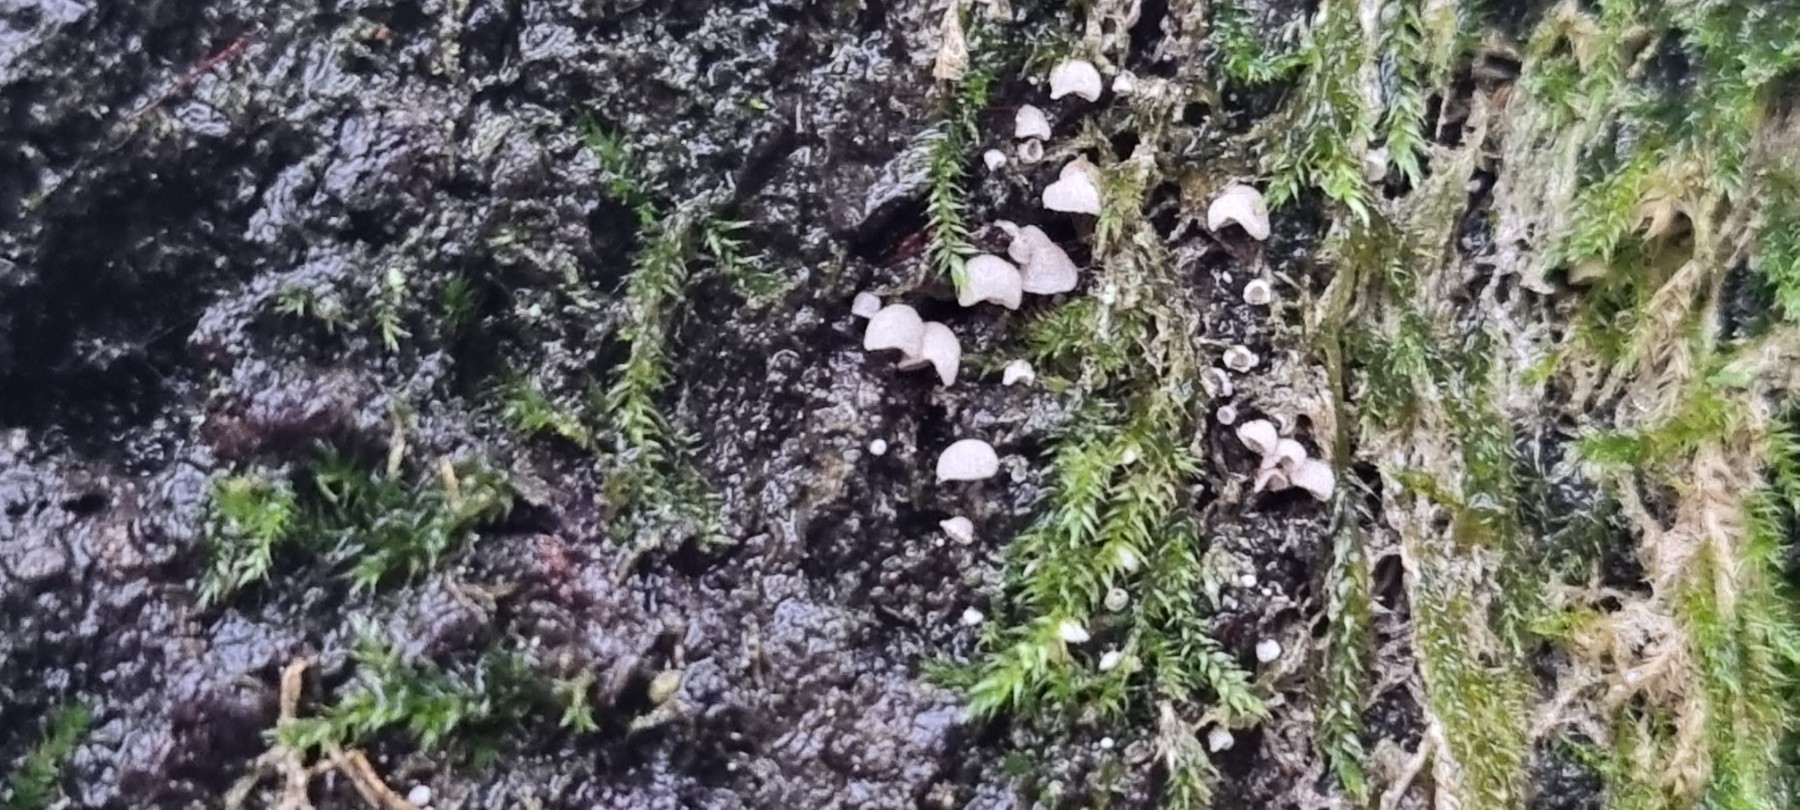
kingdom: Fungi
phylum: Basidiomycota
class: Agaricomycetes
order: Agaricales
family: Chromocyphellaceae
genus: Chromocyphella
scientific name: Chromocyphella muscicola
